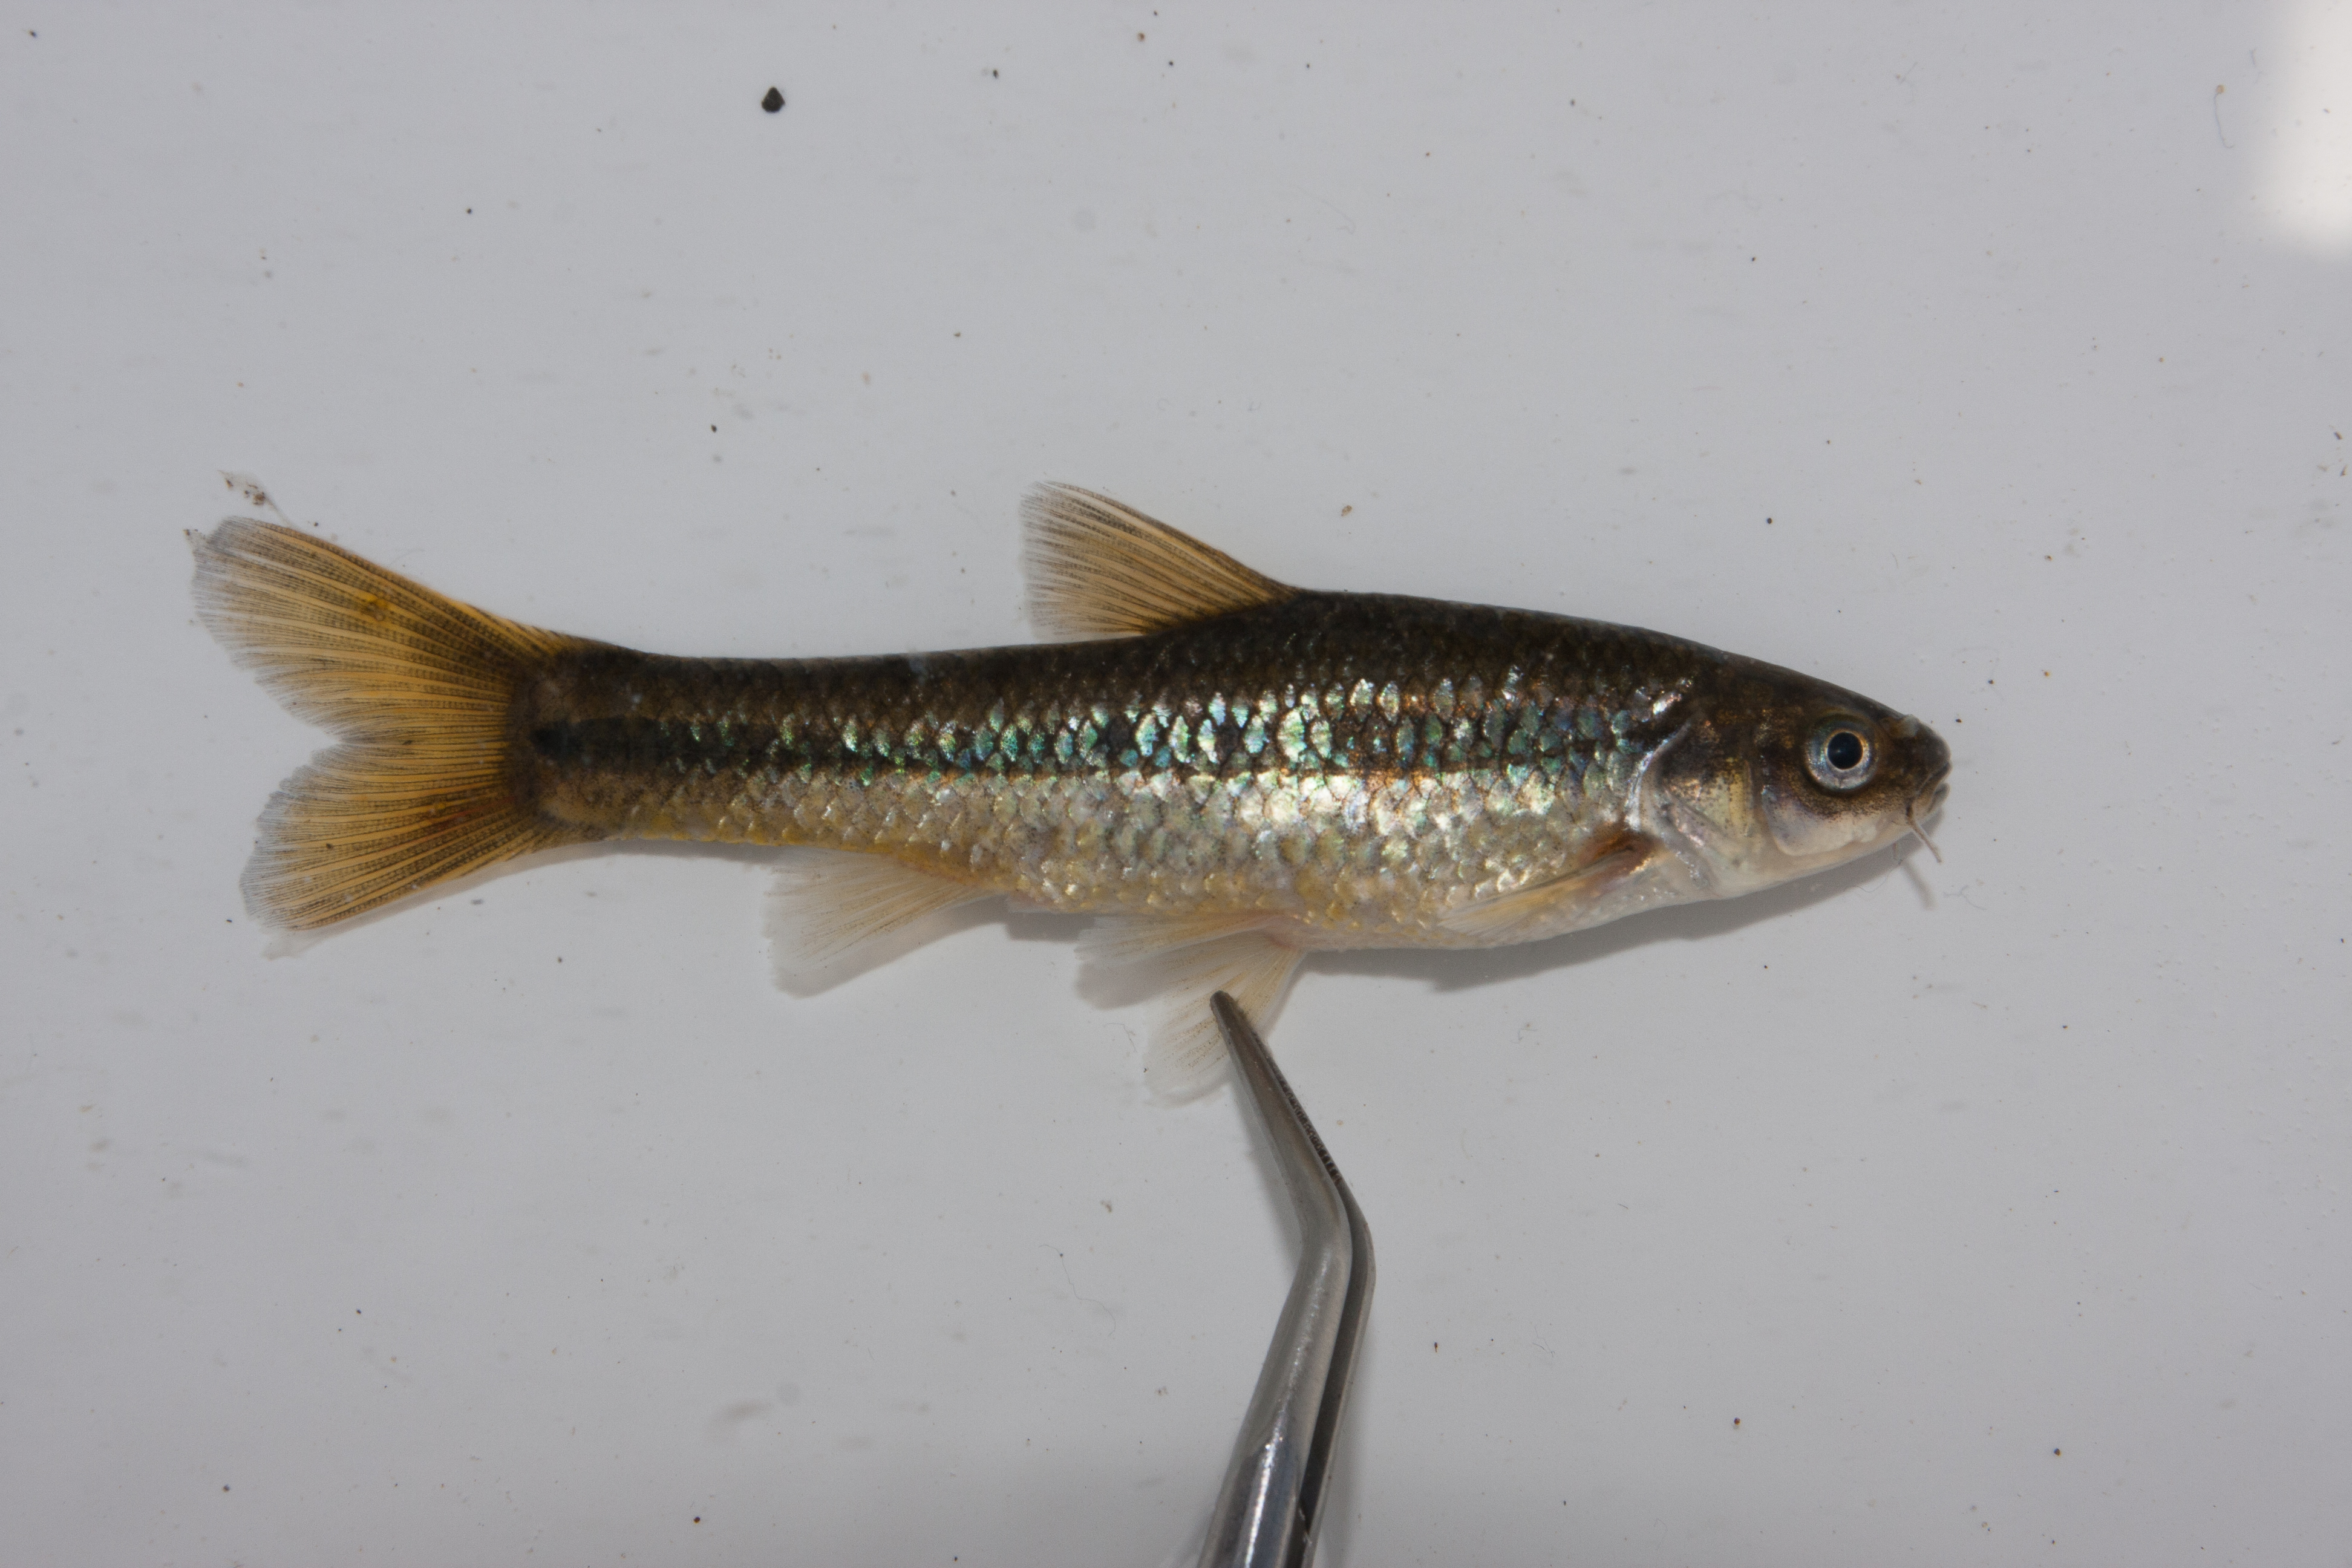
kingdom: Animalia
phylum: Chordata
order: Cypriniformes
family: Cyprinidae
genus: Enteromius
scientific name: Enteromius anoplus
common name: Chubbyhead barb
